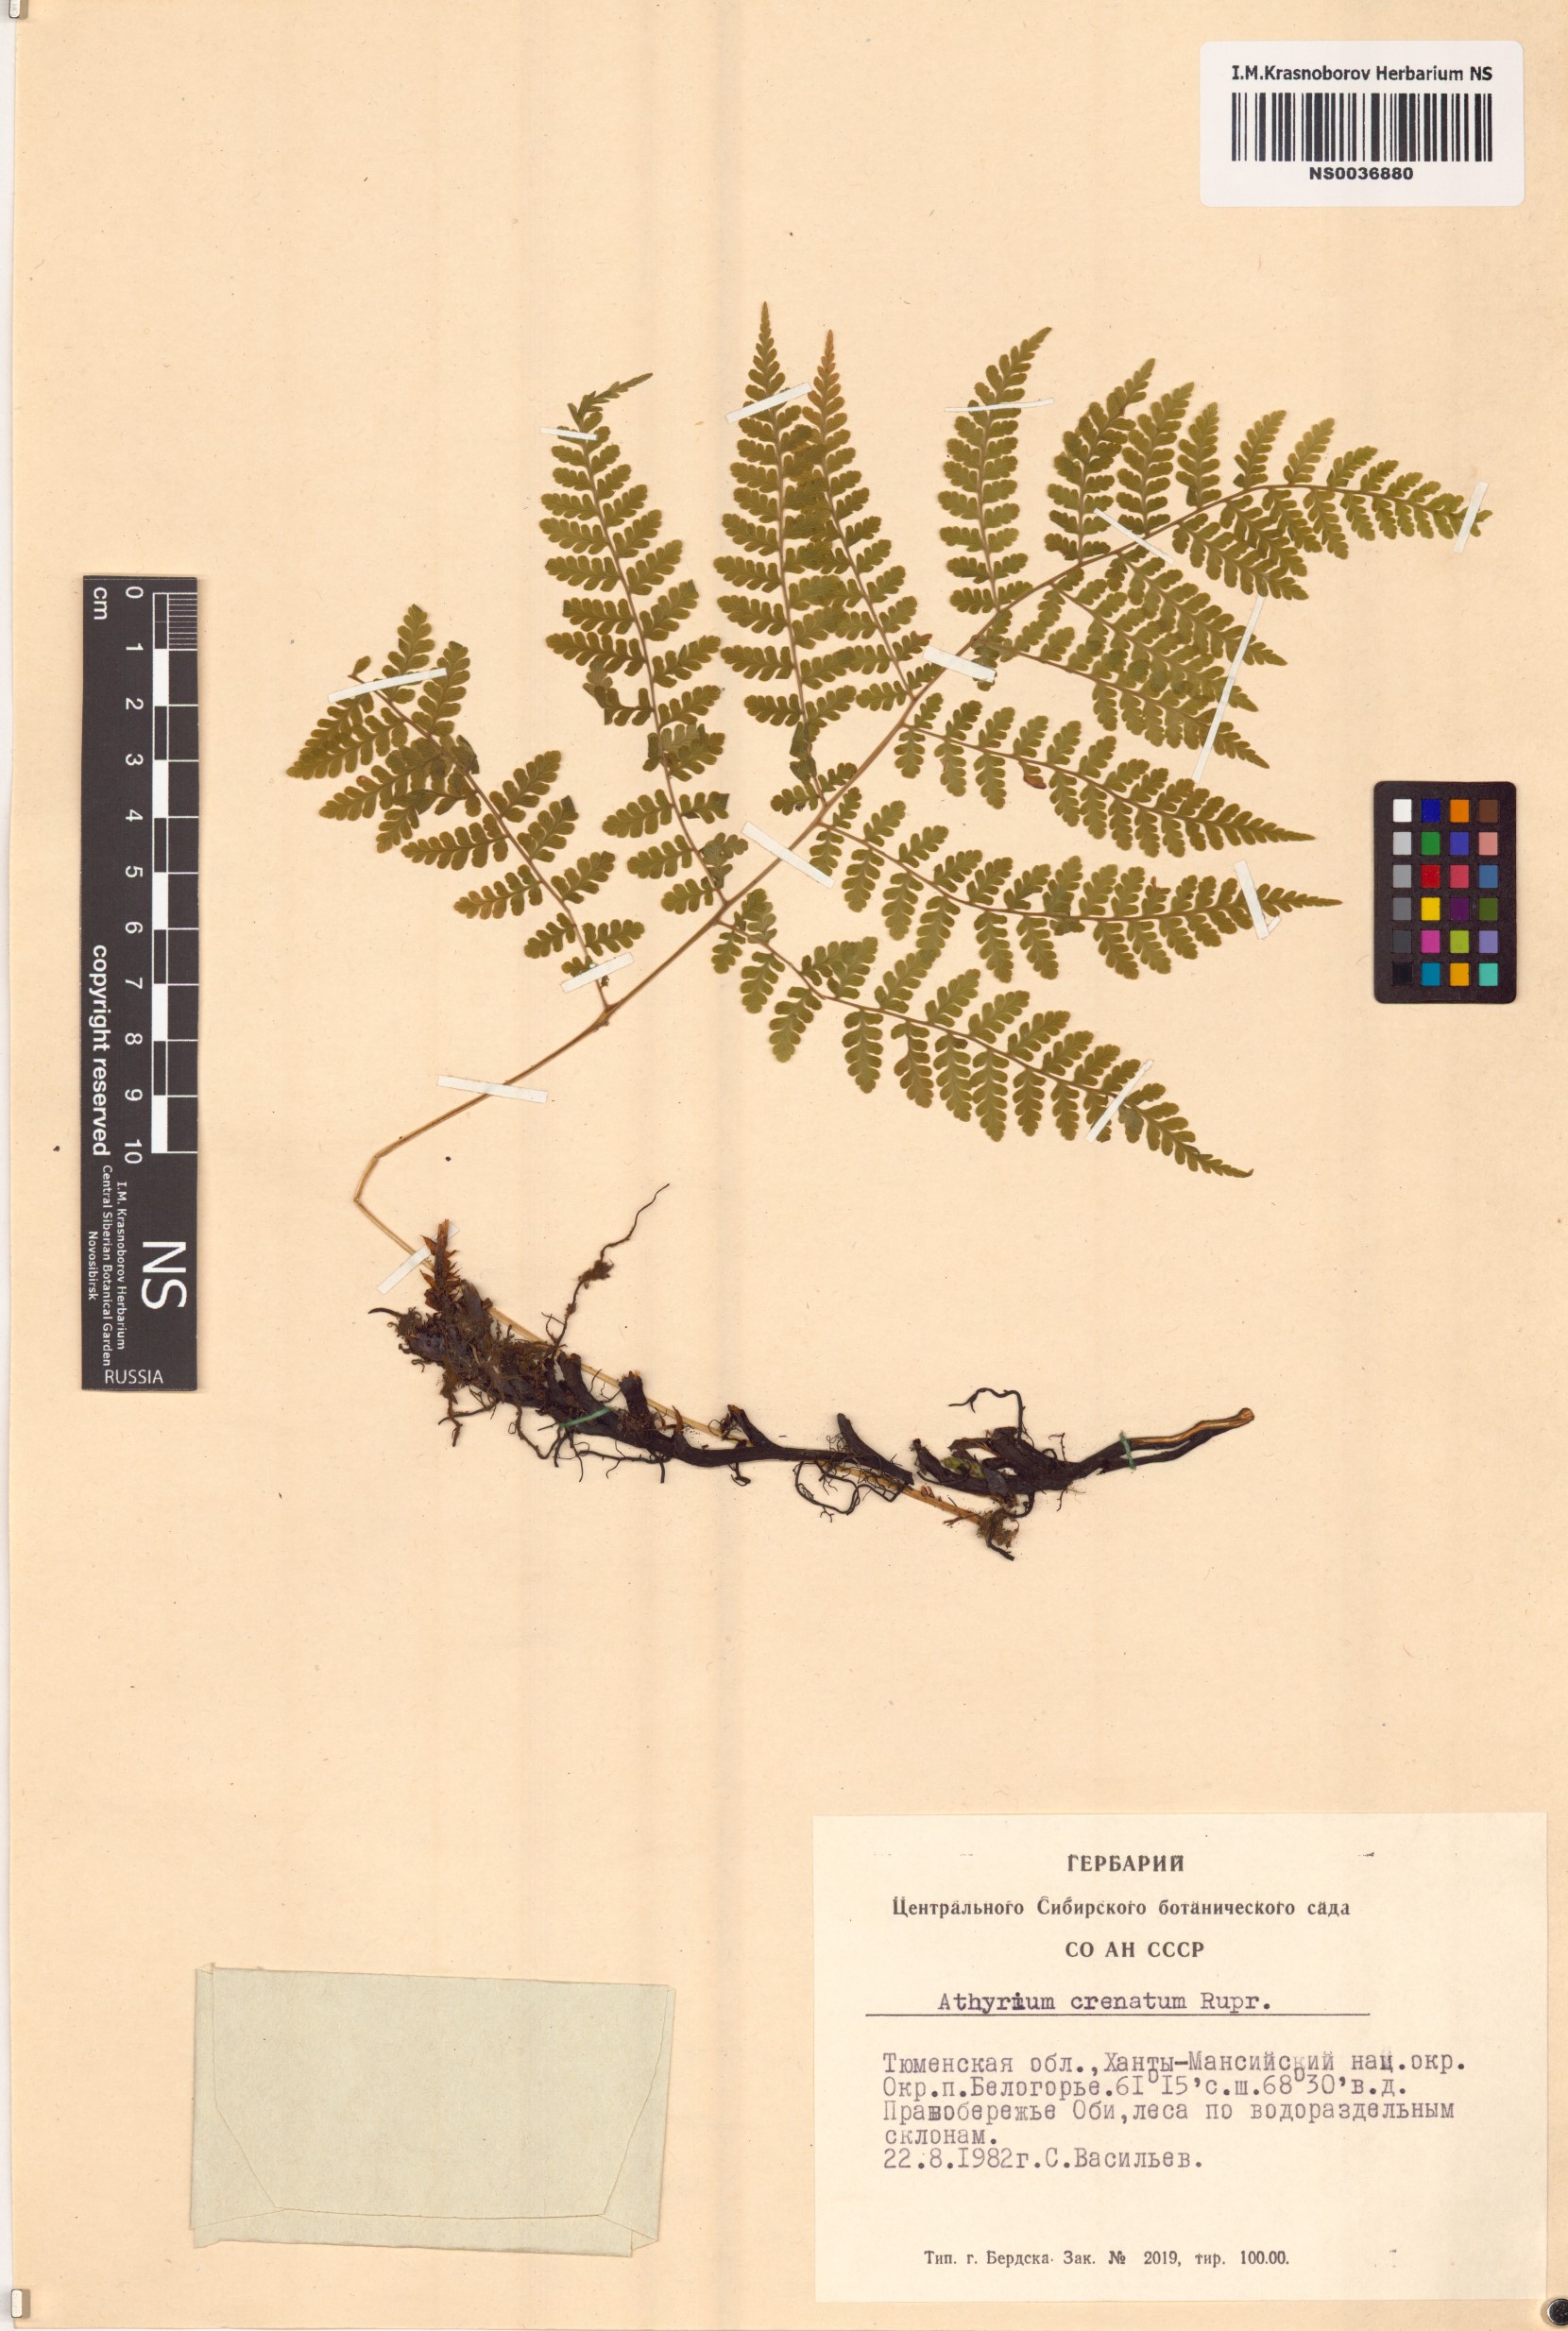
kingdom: Plantae
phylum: Tracheophyta
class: Polypodiopsida
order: Polypodiales
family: Athyriaceae
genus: Diplazium
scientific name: Diplazium sibiricum
